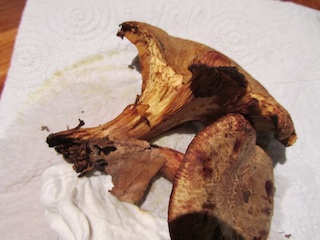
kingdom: Fungi
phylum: Basidiomycota
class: Agaricomycetes
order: Boletales
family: Paxillaceae
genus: Paxillus
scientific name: Paxillus rubicundulus
